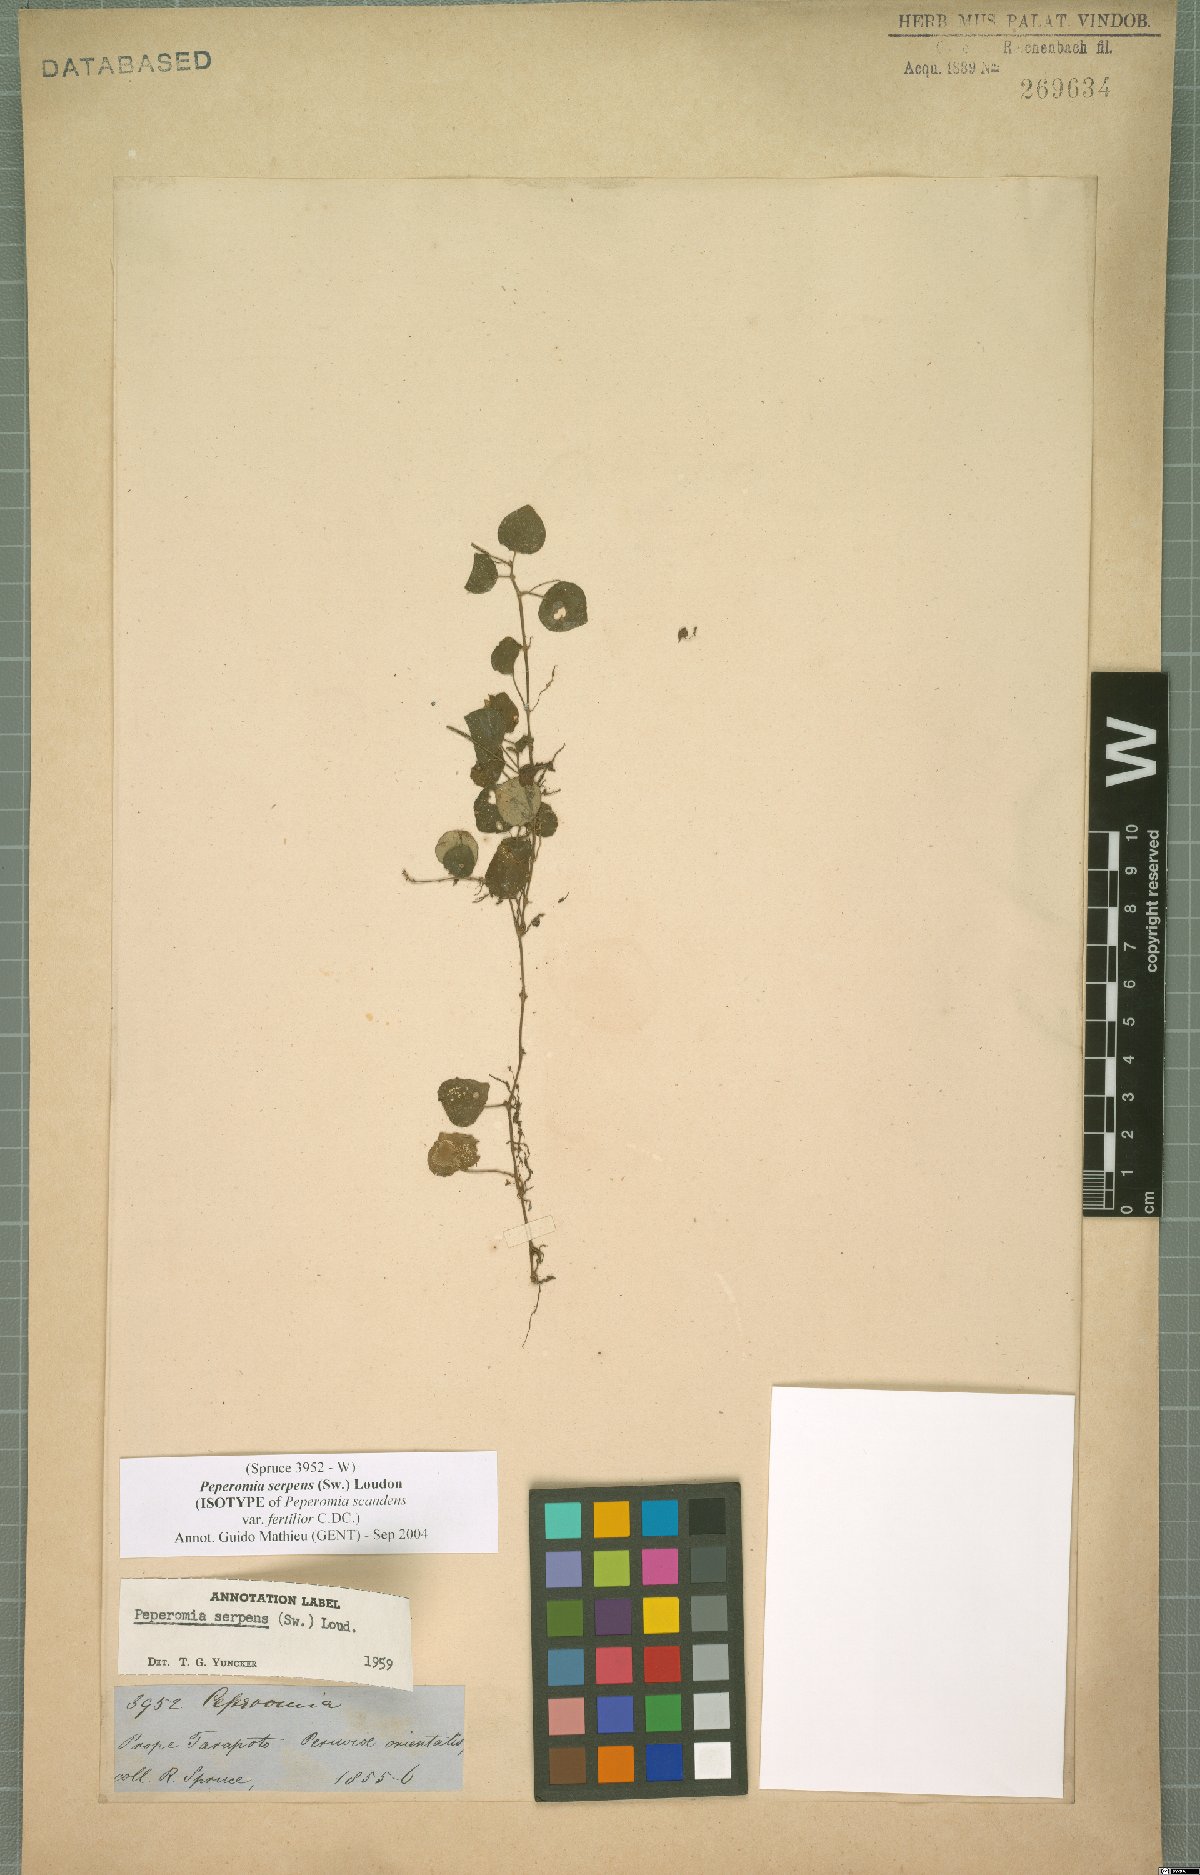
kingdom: Plantae
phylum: Tracheophyta
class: Magnoliopsida
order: Piperales
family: Piperaceae
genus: Peperomia
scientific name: Peperomia serpens
